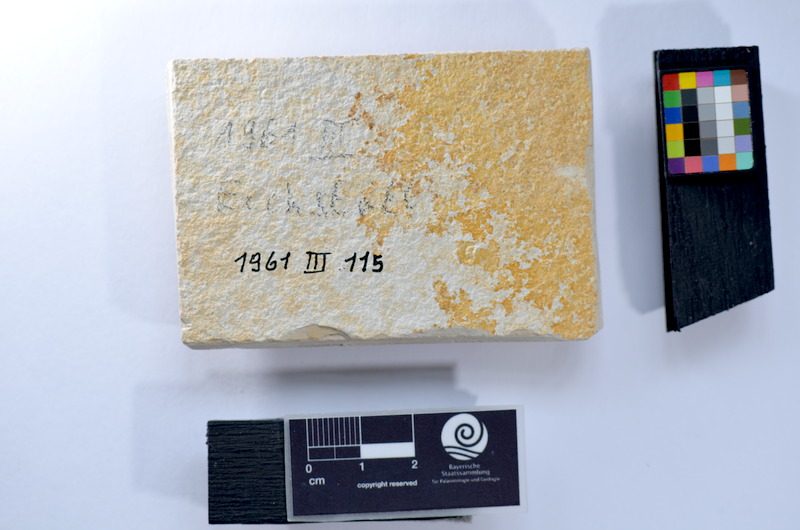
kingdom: Animalia
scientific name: Animalia
